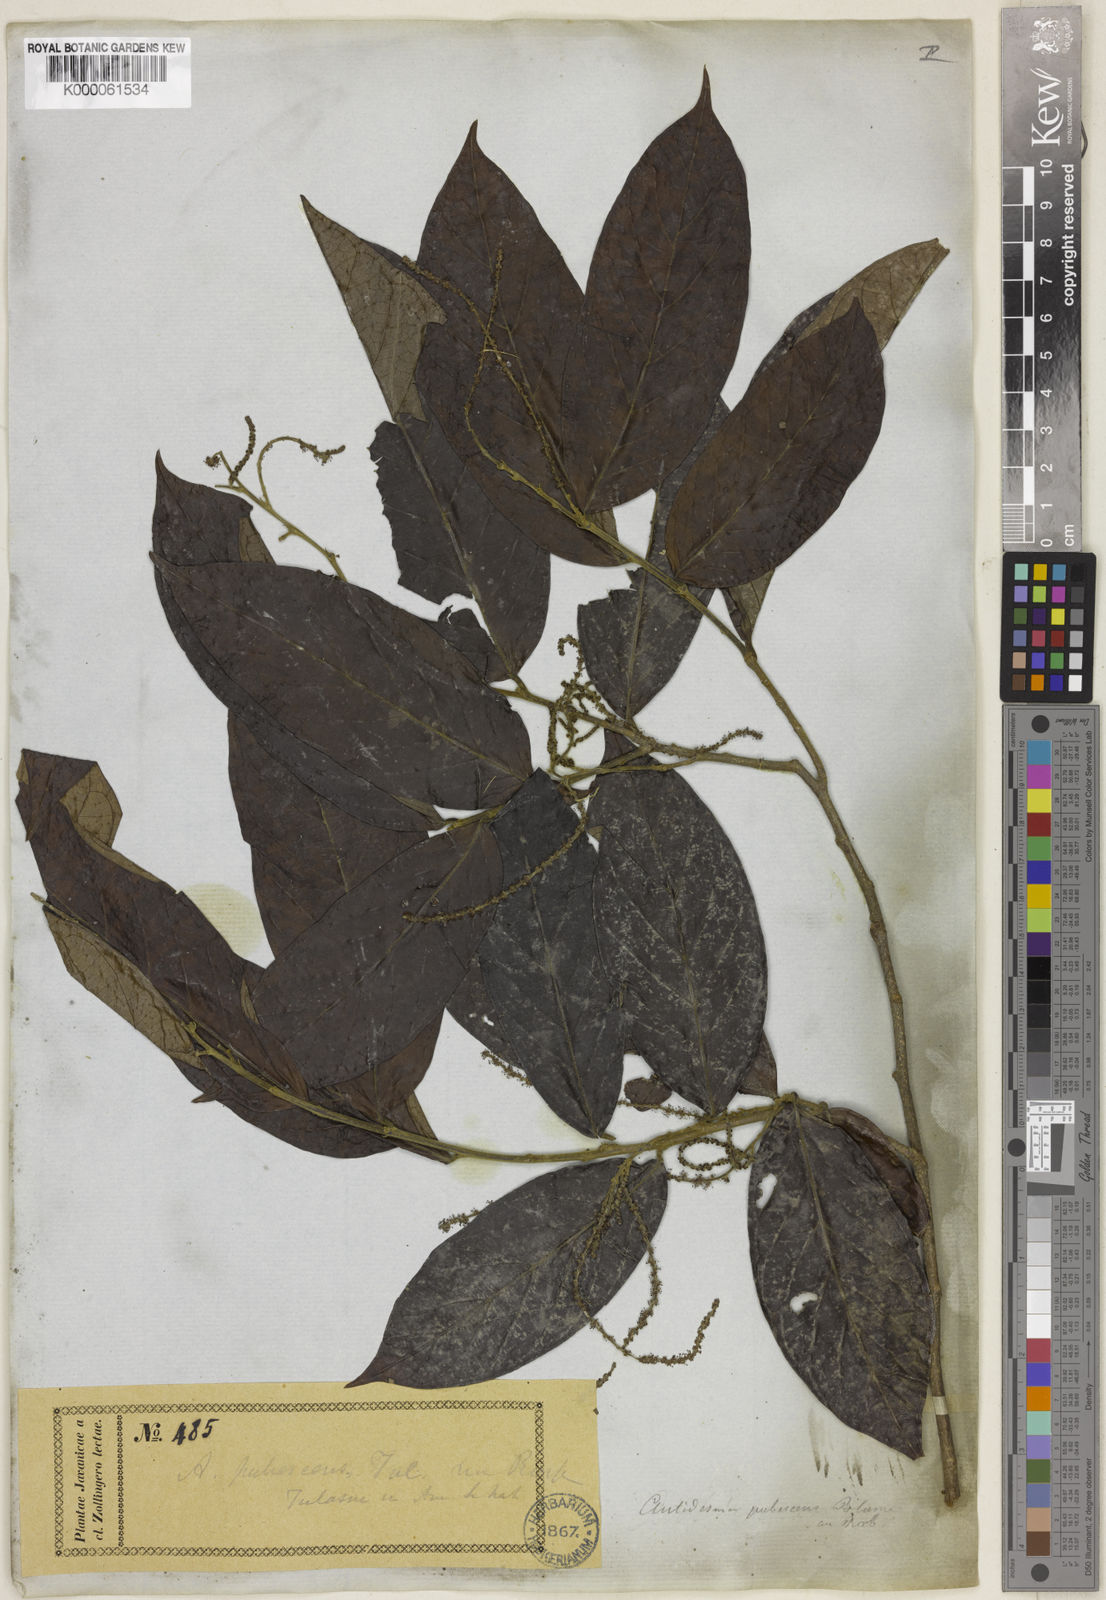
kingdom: Plantae
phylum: Tracheophyta
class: Magnoliopsida
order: Malpighiales
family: Phyllanthaceae
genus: Antidesma
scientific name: Antidesma montanum
